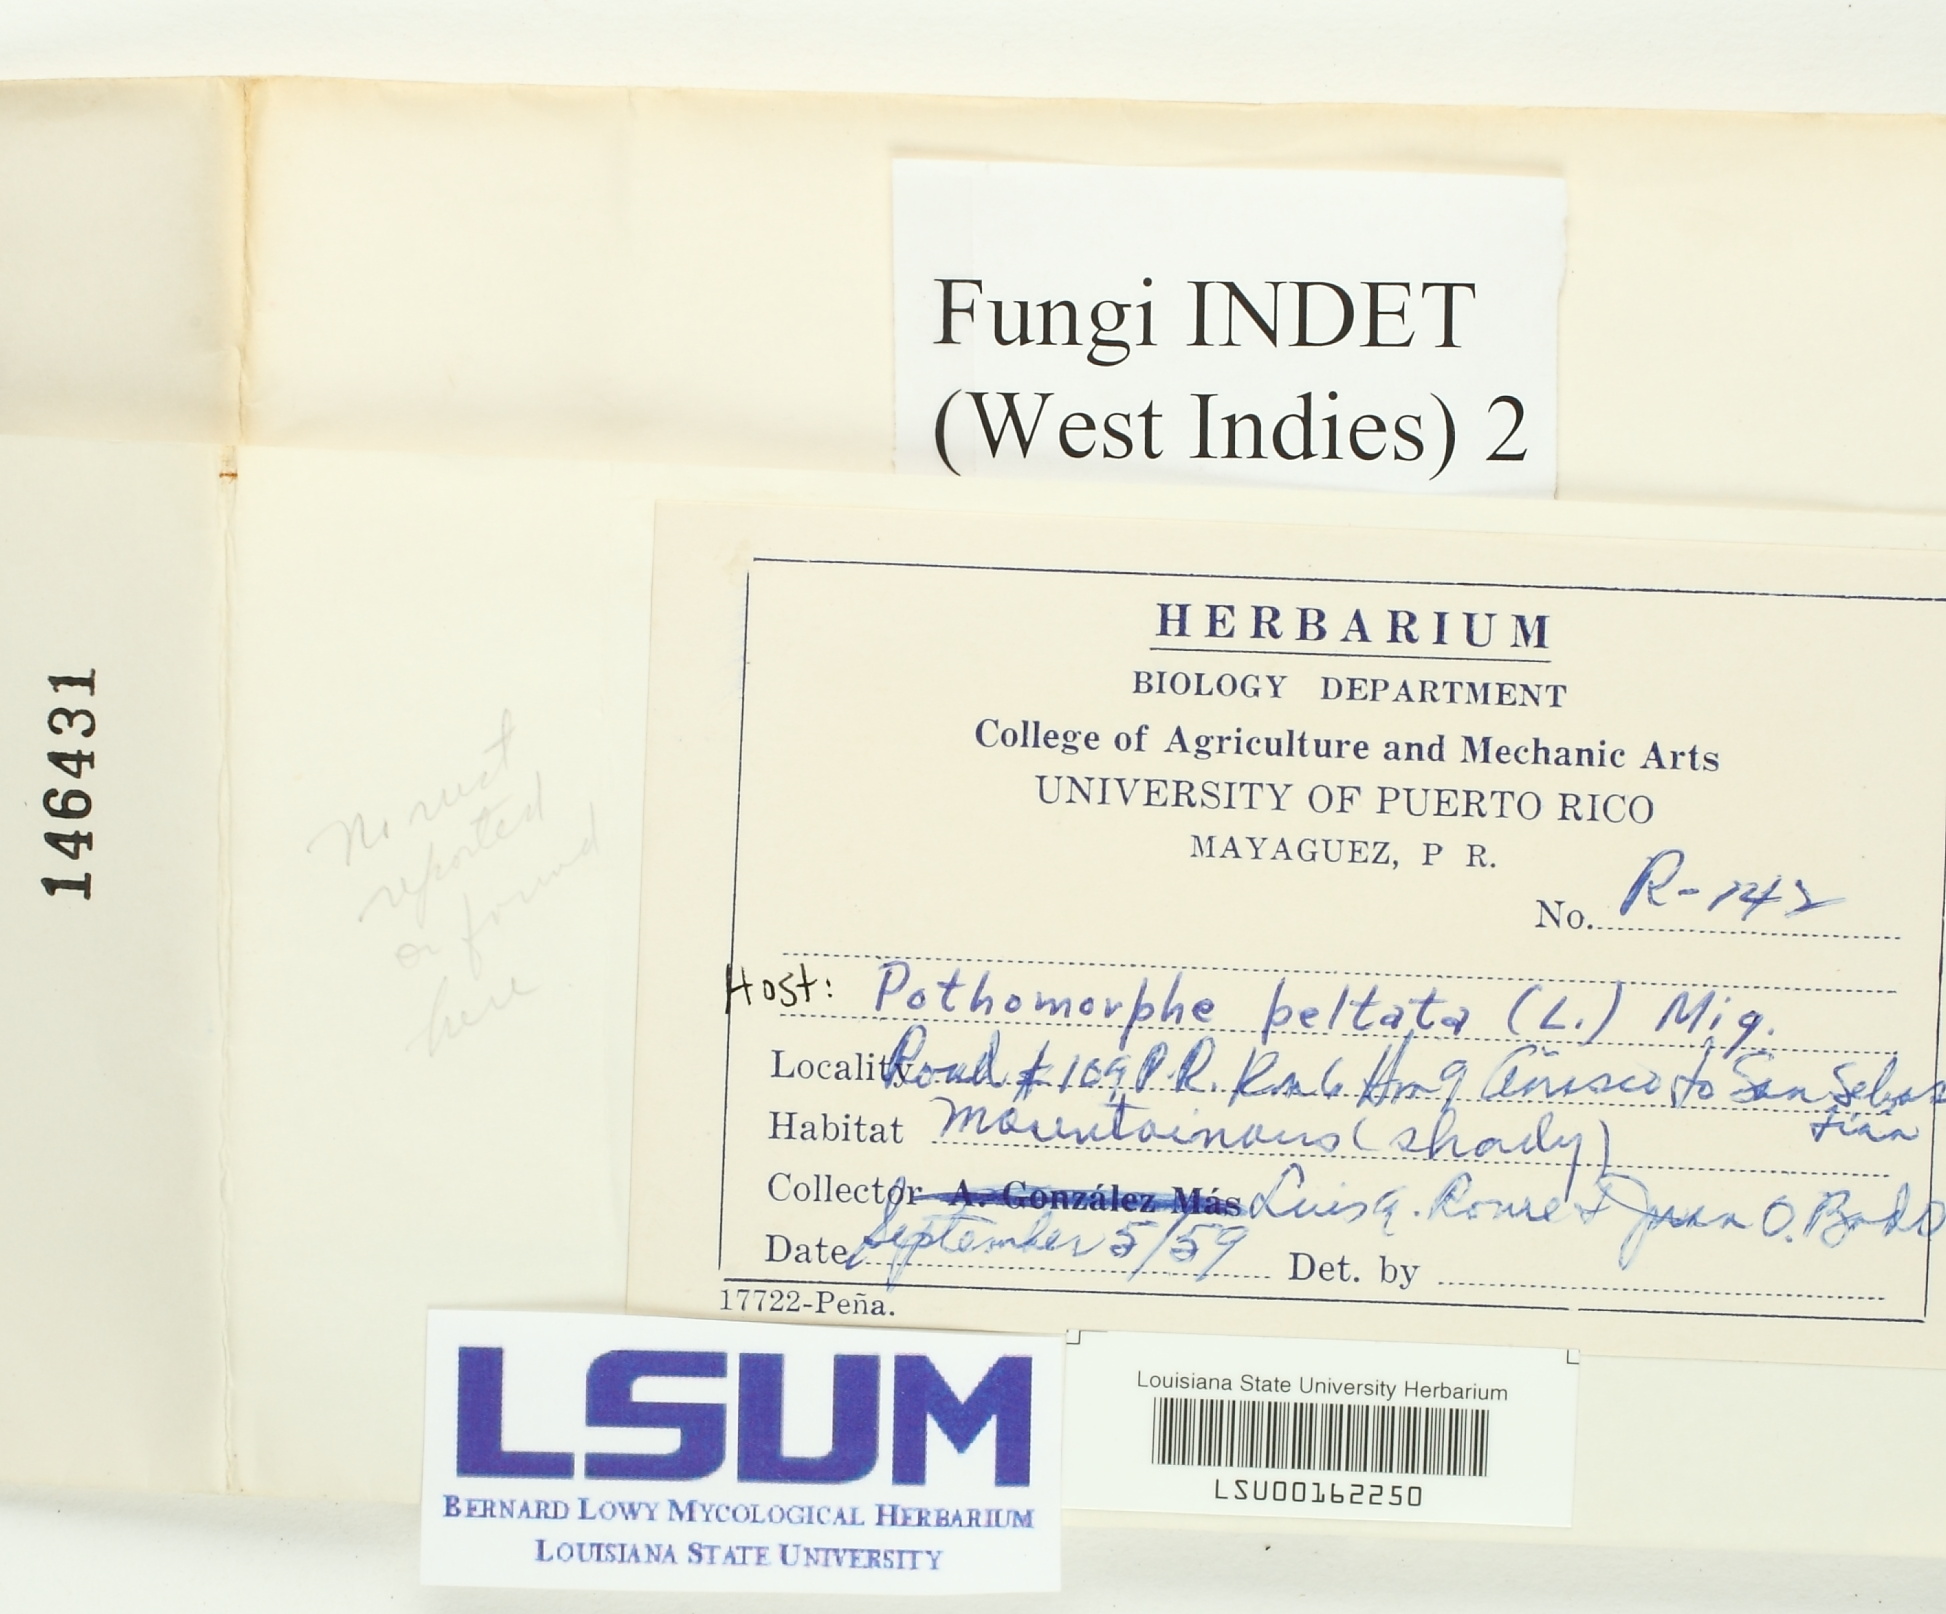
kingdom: Fungi
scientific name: Fungi
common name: Fungi
